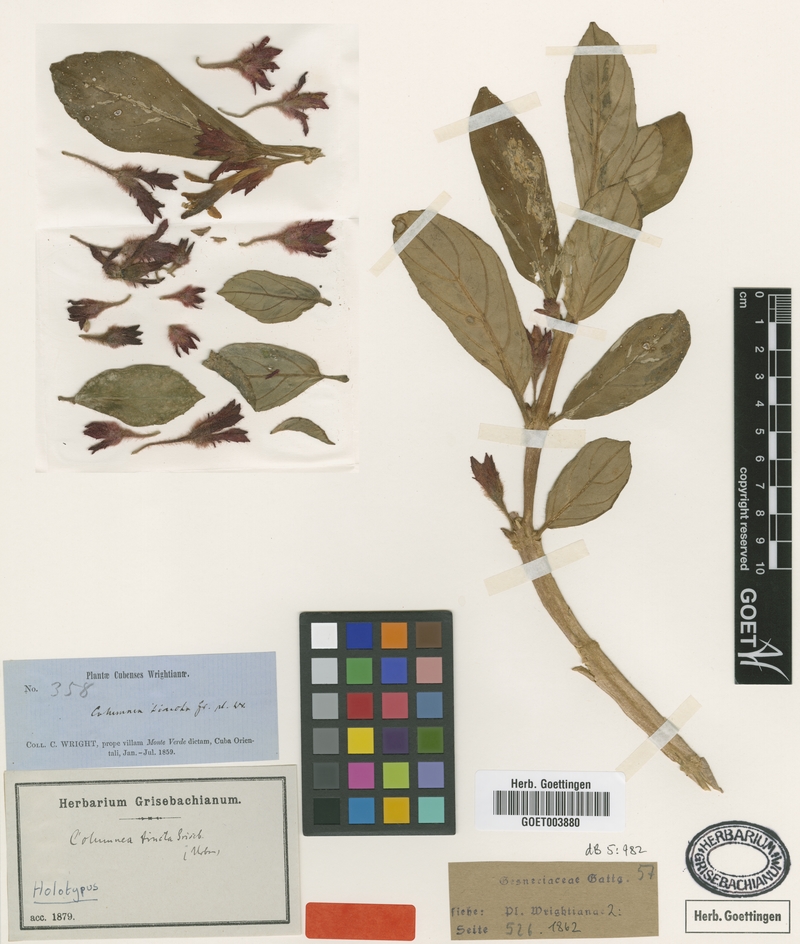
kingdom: Plantae
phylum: Tracheophyta
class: Magnoliopsida
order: Lamiales
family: Gesneriaceae
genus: Columnea
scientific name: Columnea tincta
